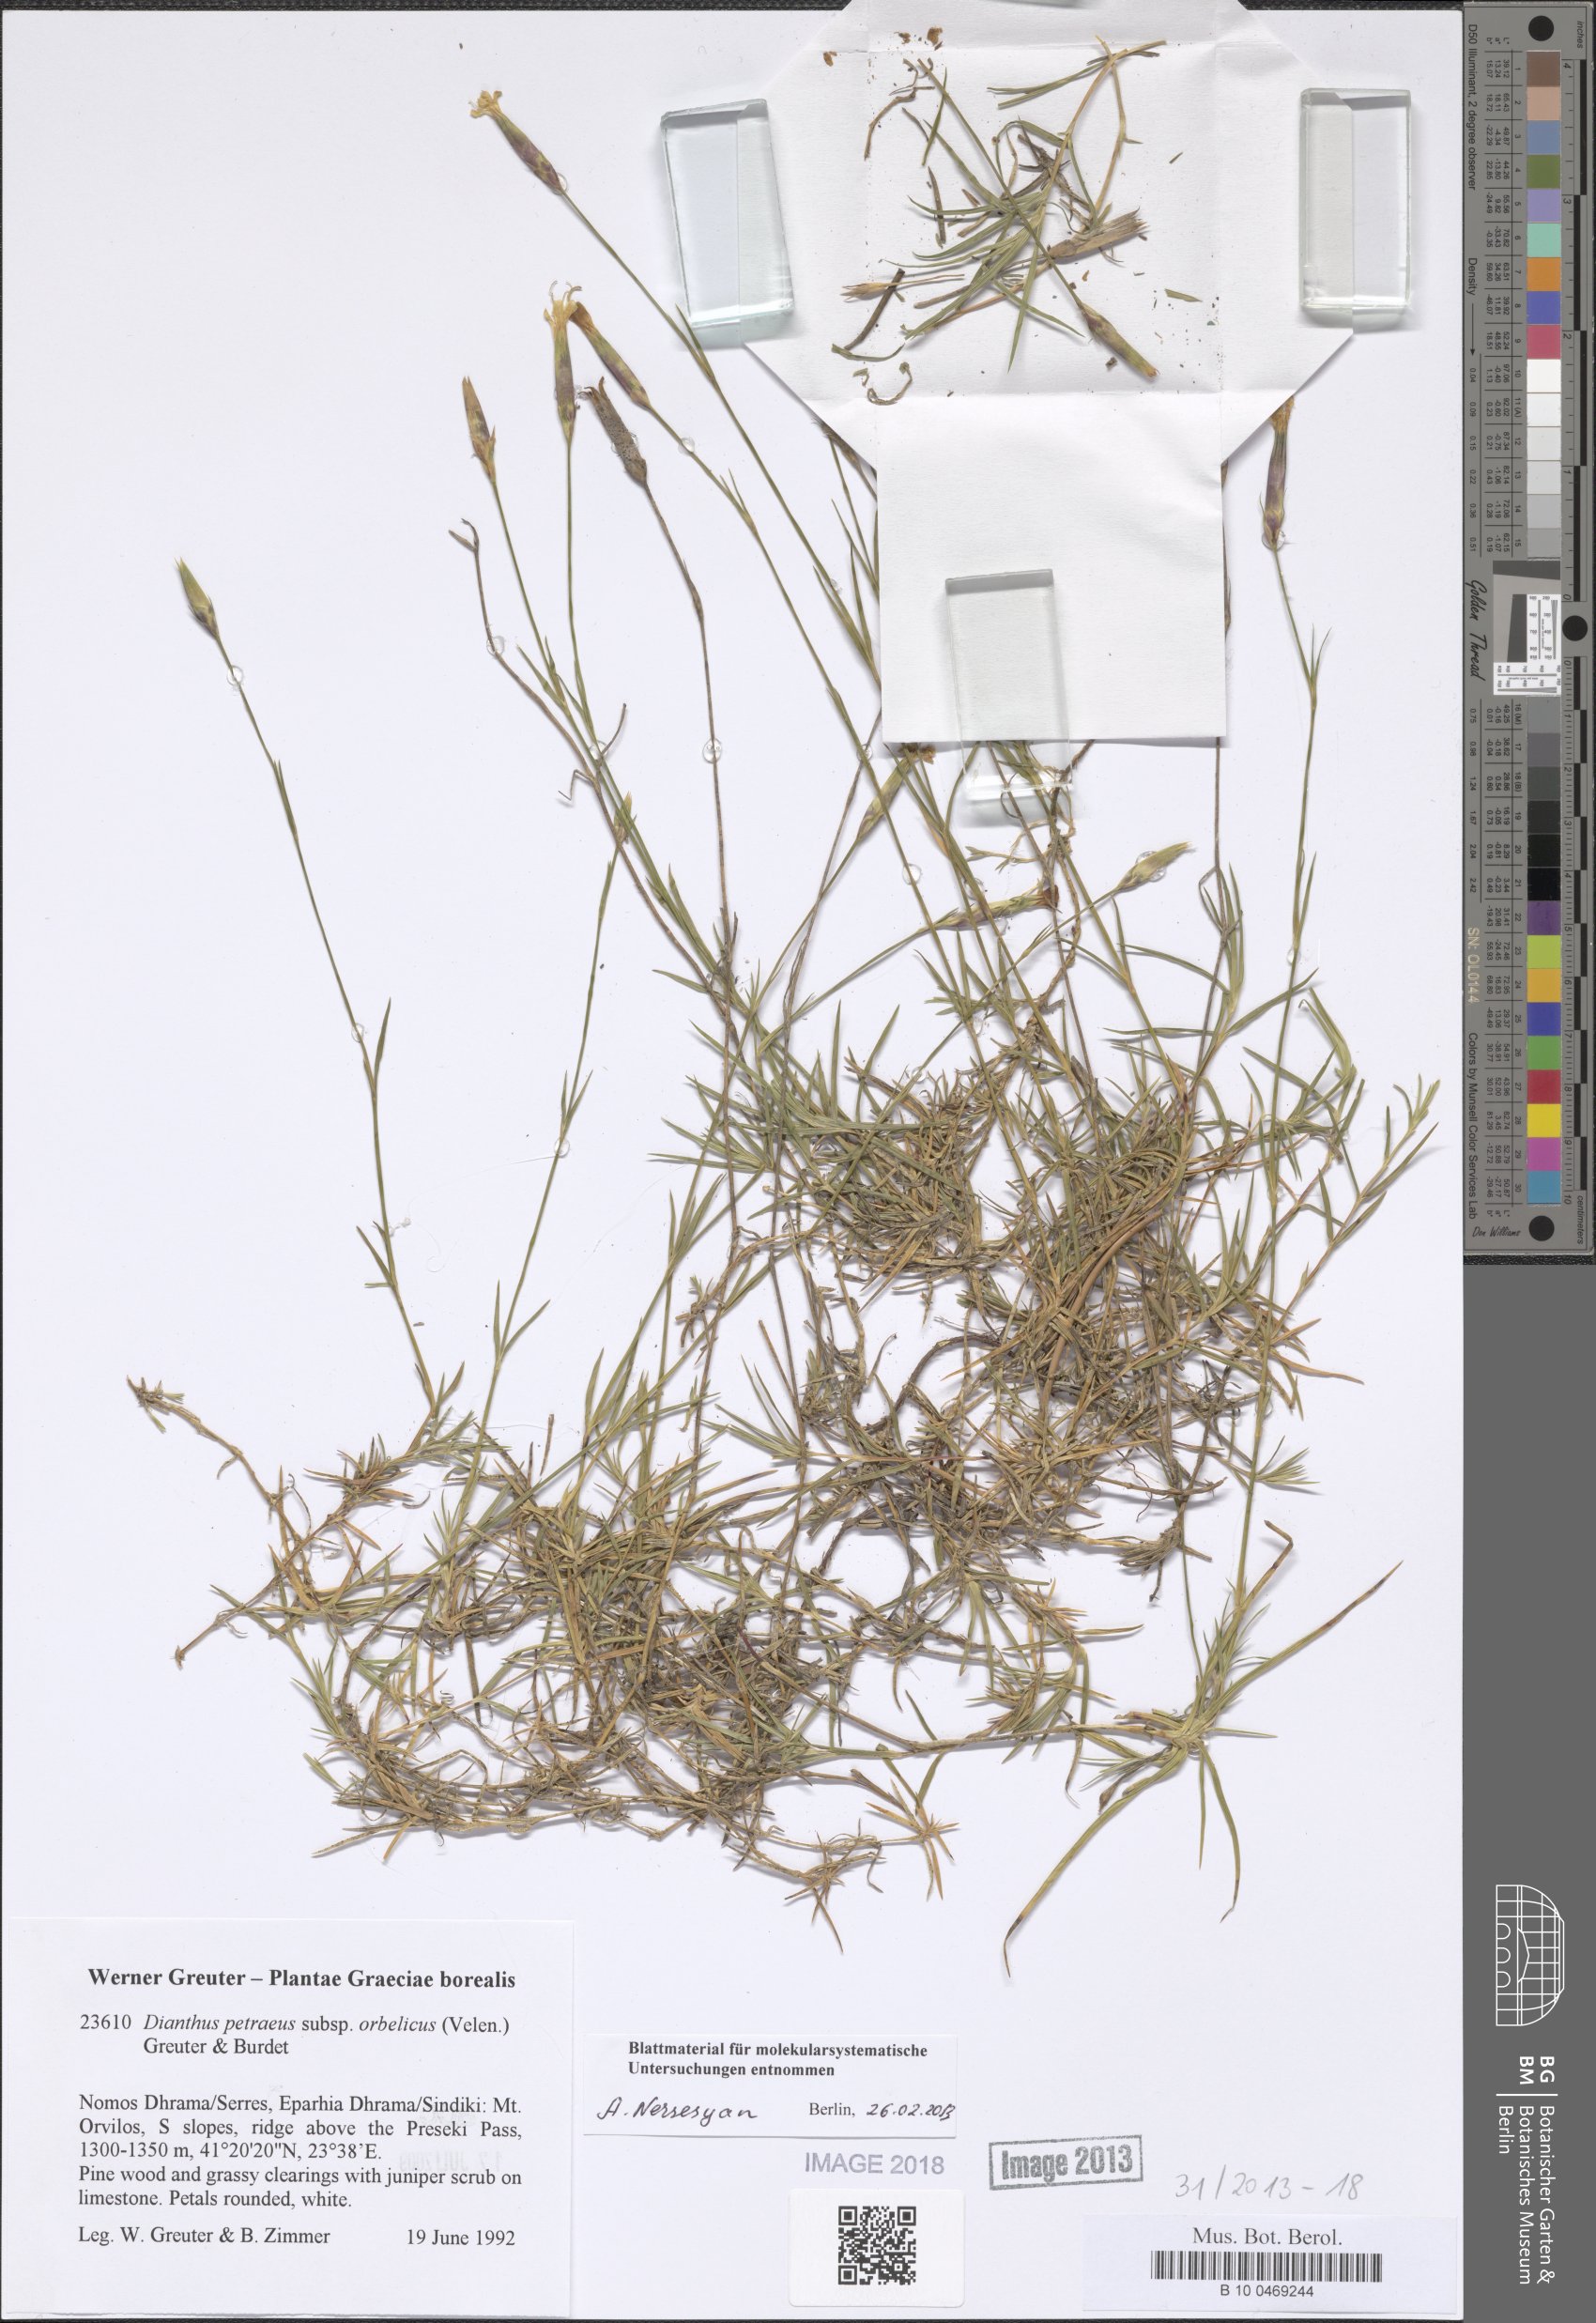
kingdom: Plantae
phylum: Tracheophyta
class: Magnoliopsida
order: Caryophyllales
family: Caryophyllaceae
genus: Dianthus
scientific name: Dianthus petraeus
